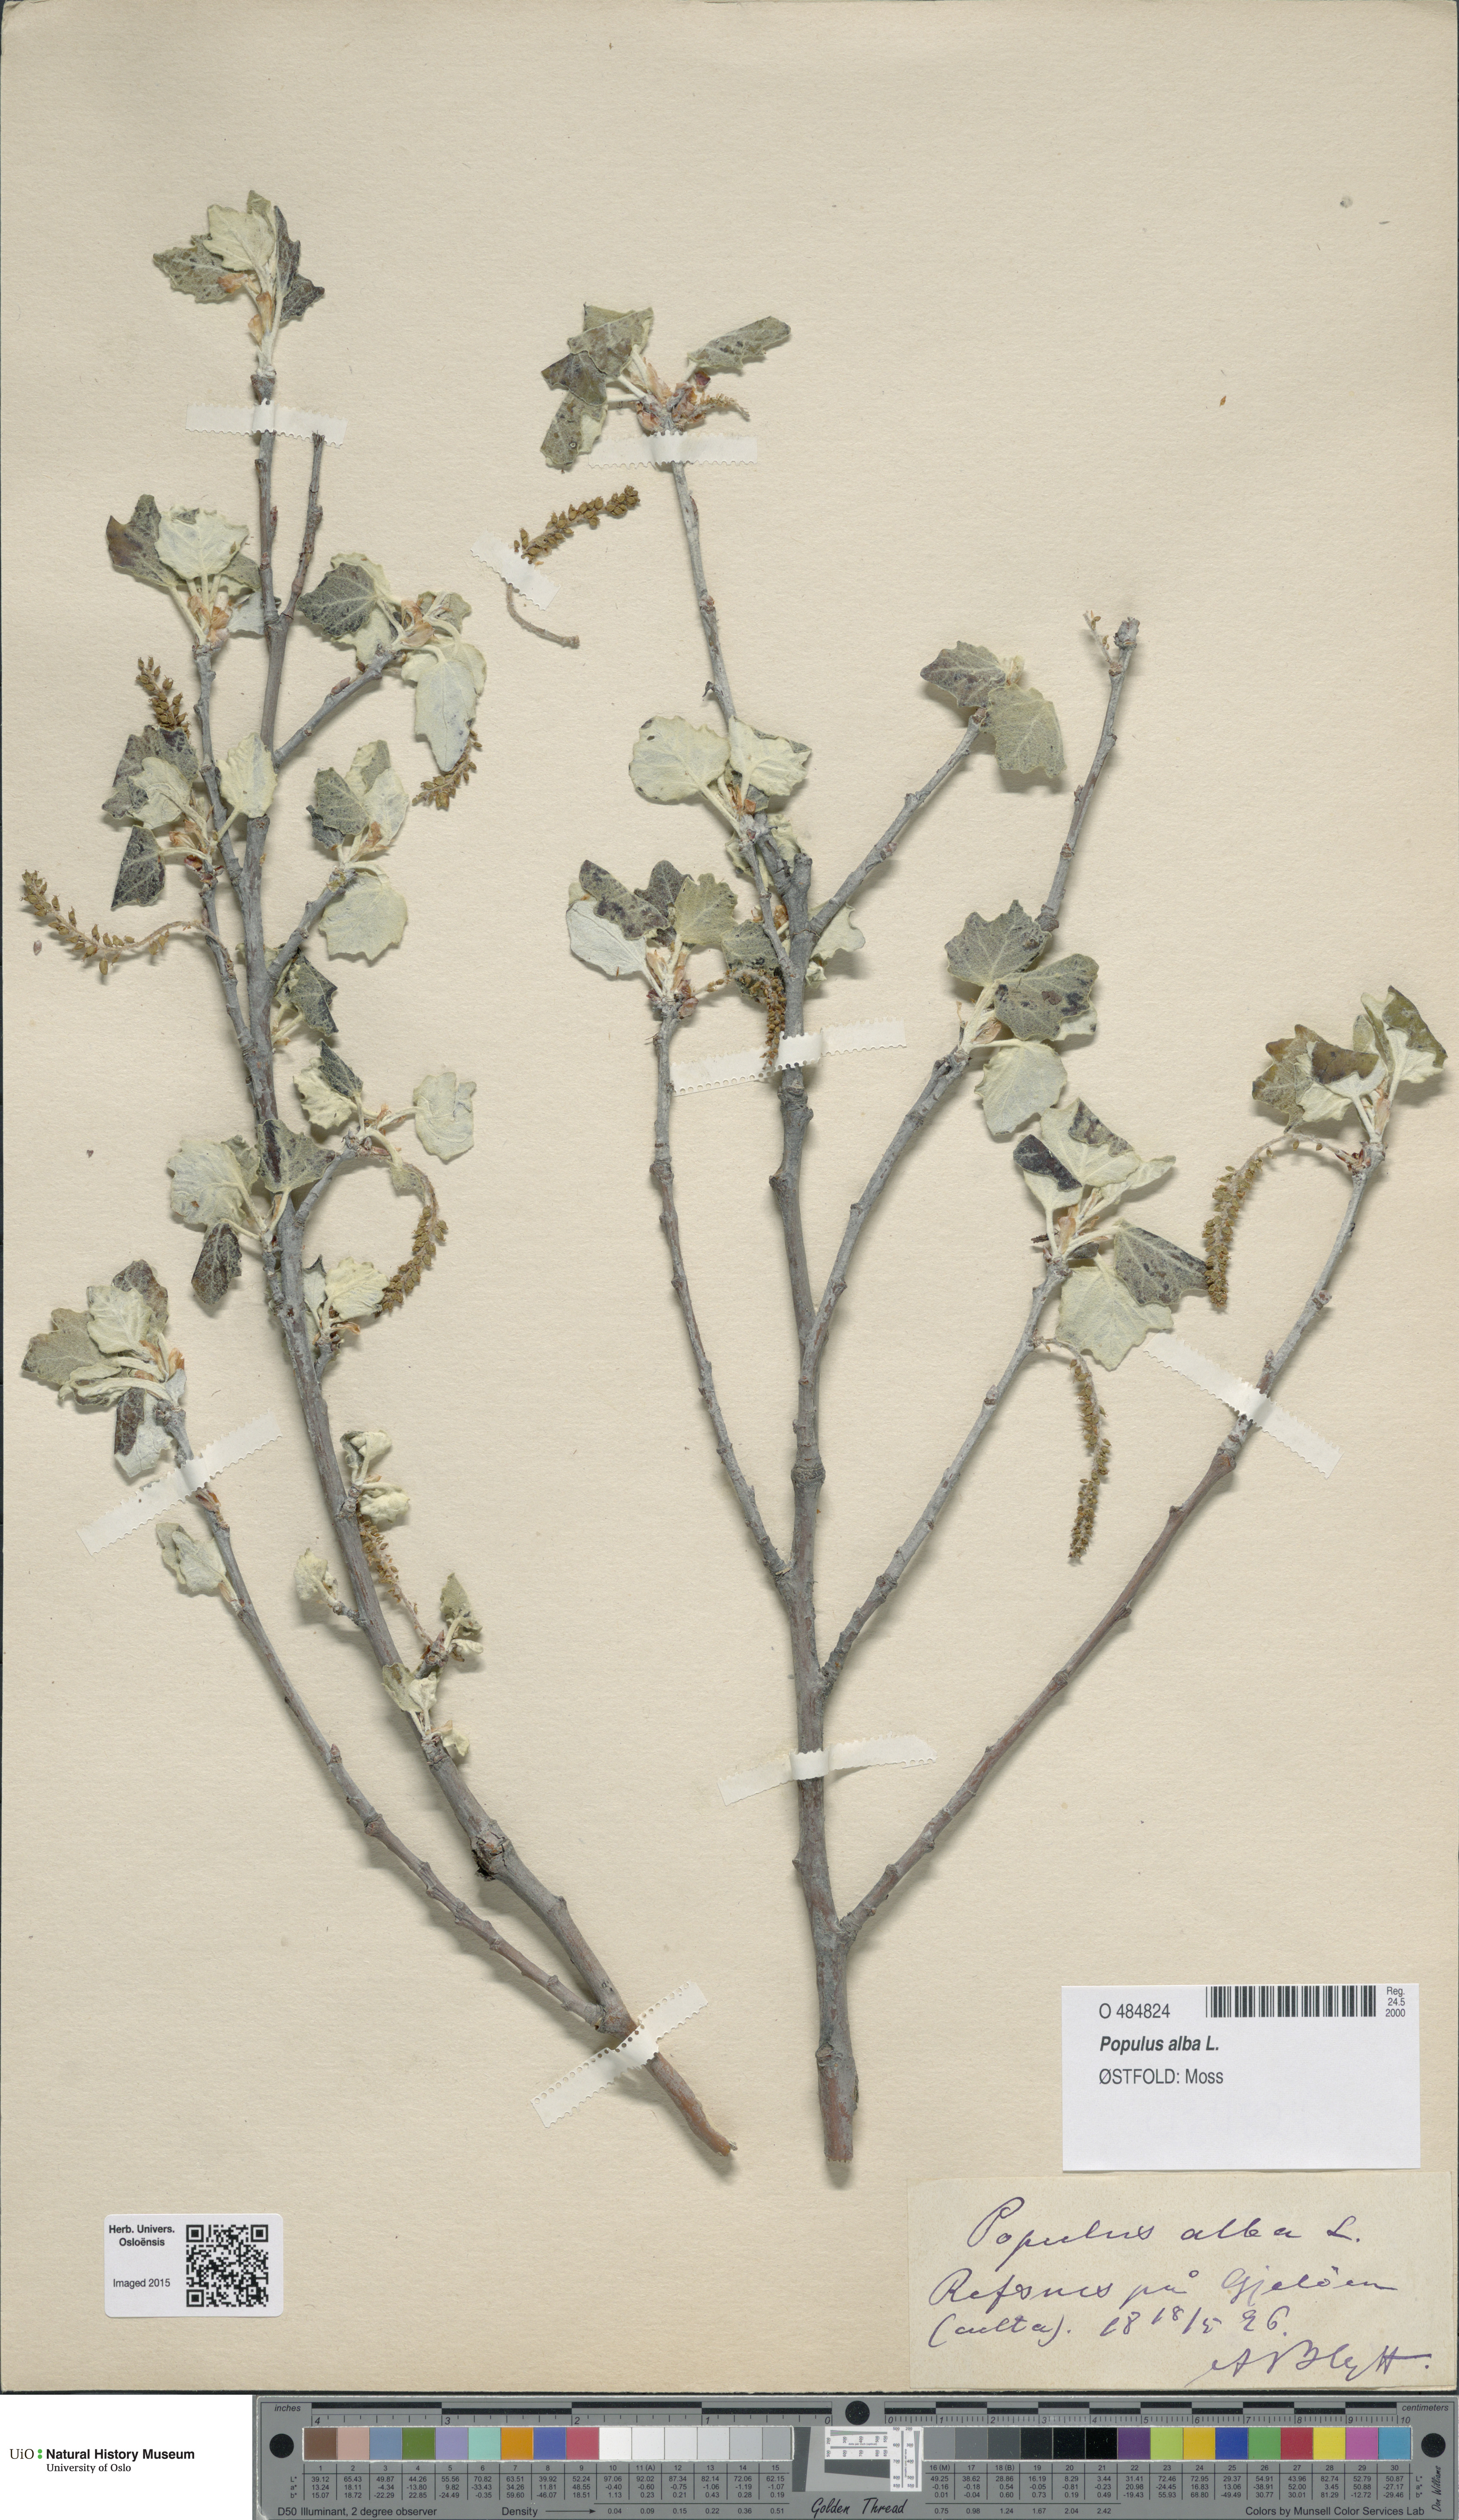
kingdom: Plantae
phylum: Tracheophyta
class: Magnoliopsida
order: Malpighiales
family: Salicaceae
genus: Populus
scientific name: Populus canescens
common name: Gray poplar
